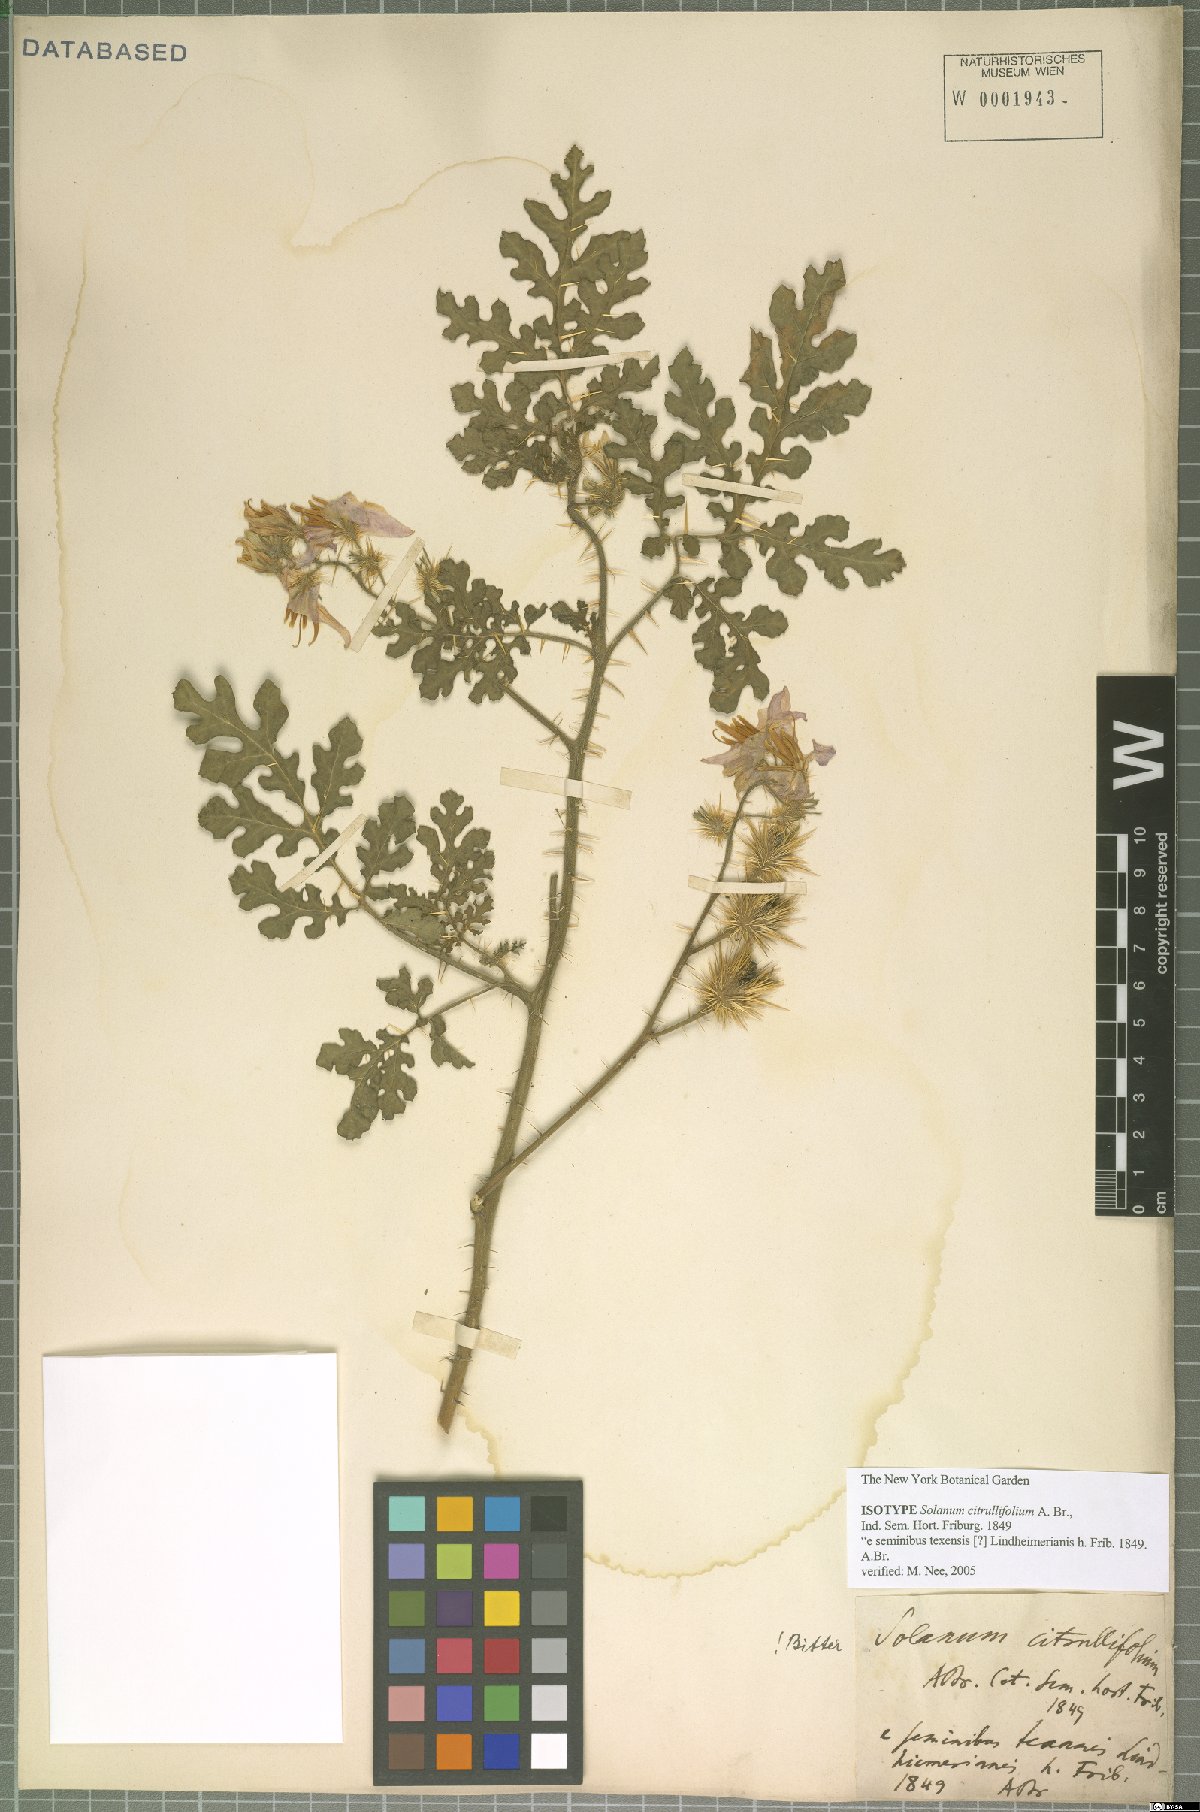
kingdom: Plantae
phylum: Tracheophyta
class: Magnoliopsida
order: Solanales
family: Solanaceae
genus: Solanum
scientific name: Solanum citrullifolium
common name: Melon-leaf nightshade
